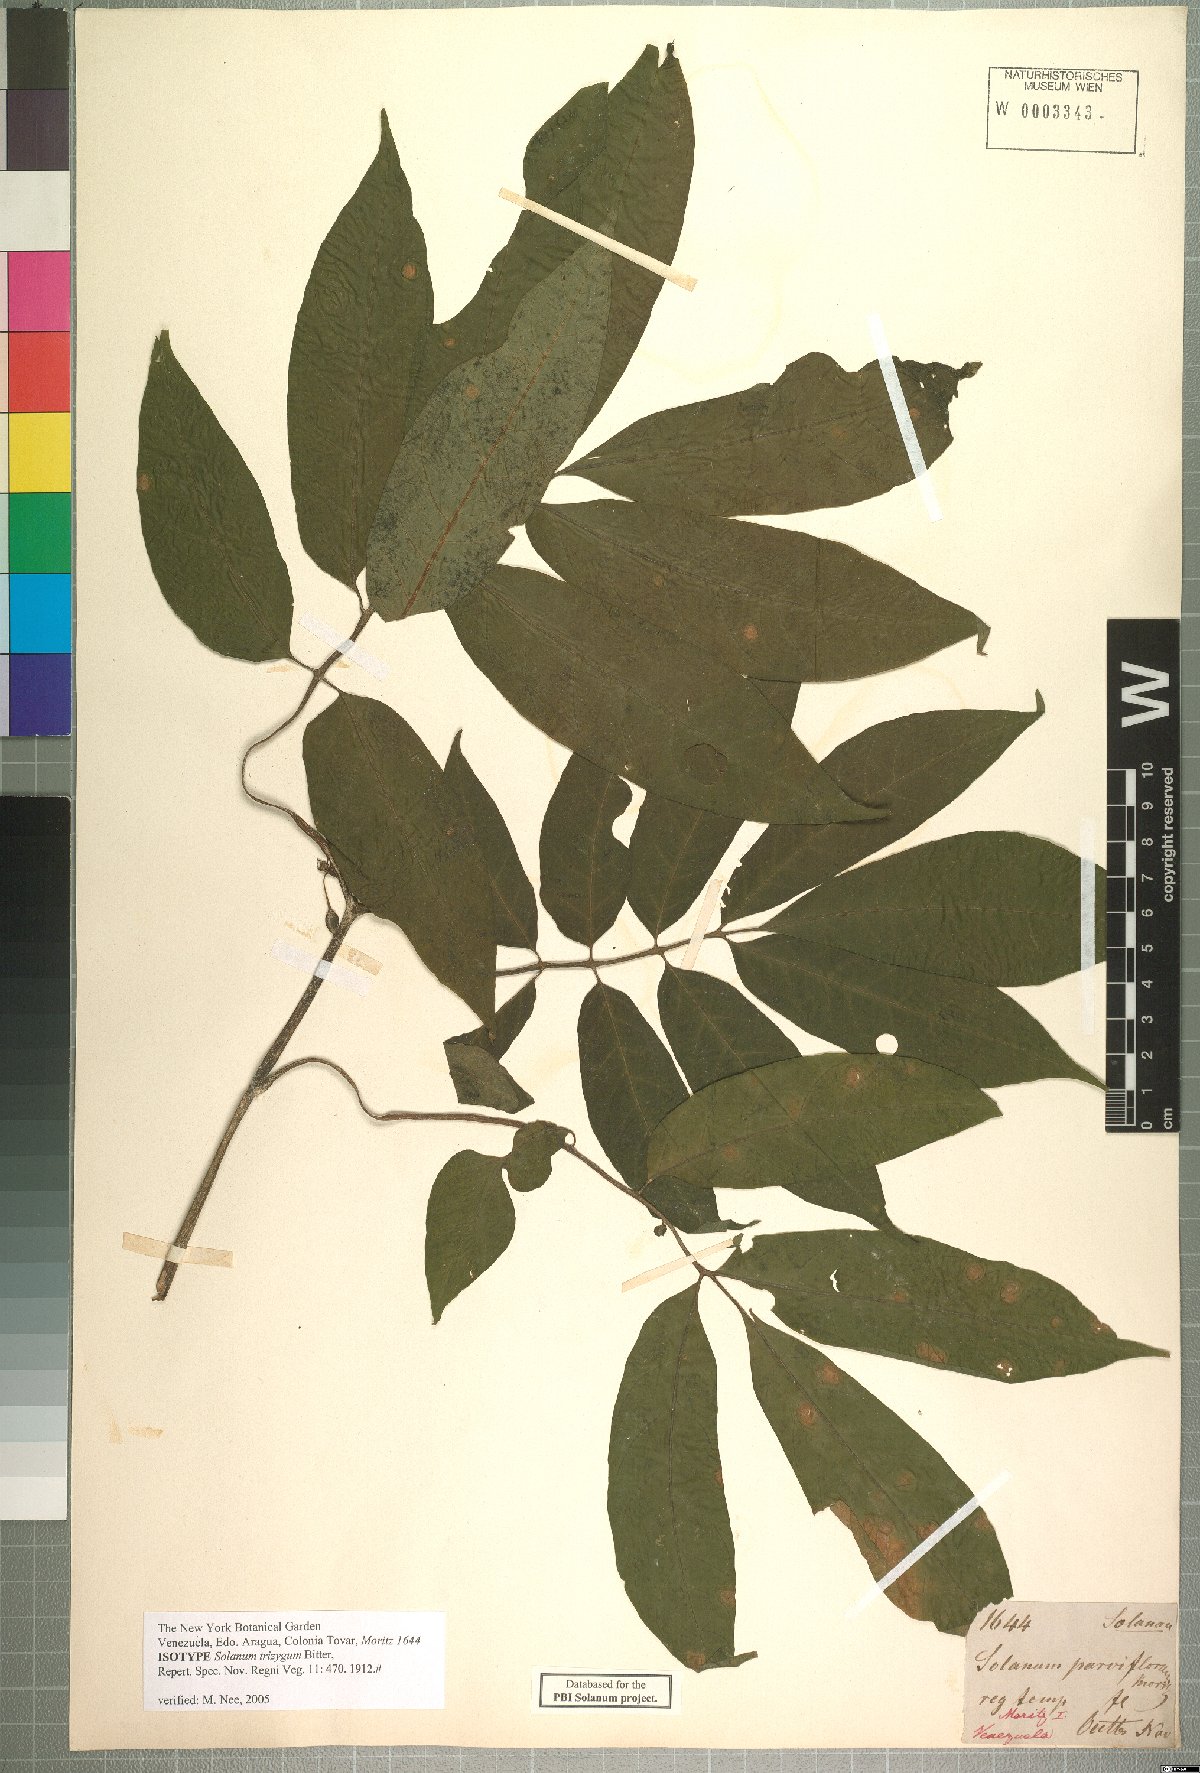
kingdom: Plantae
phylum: Tracheophyta
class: Magnoliopsida
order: Solanales
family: Solanaceae
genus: Solanum
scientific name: Solanum trizygum
